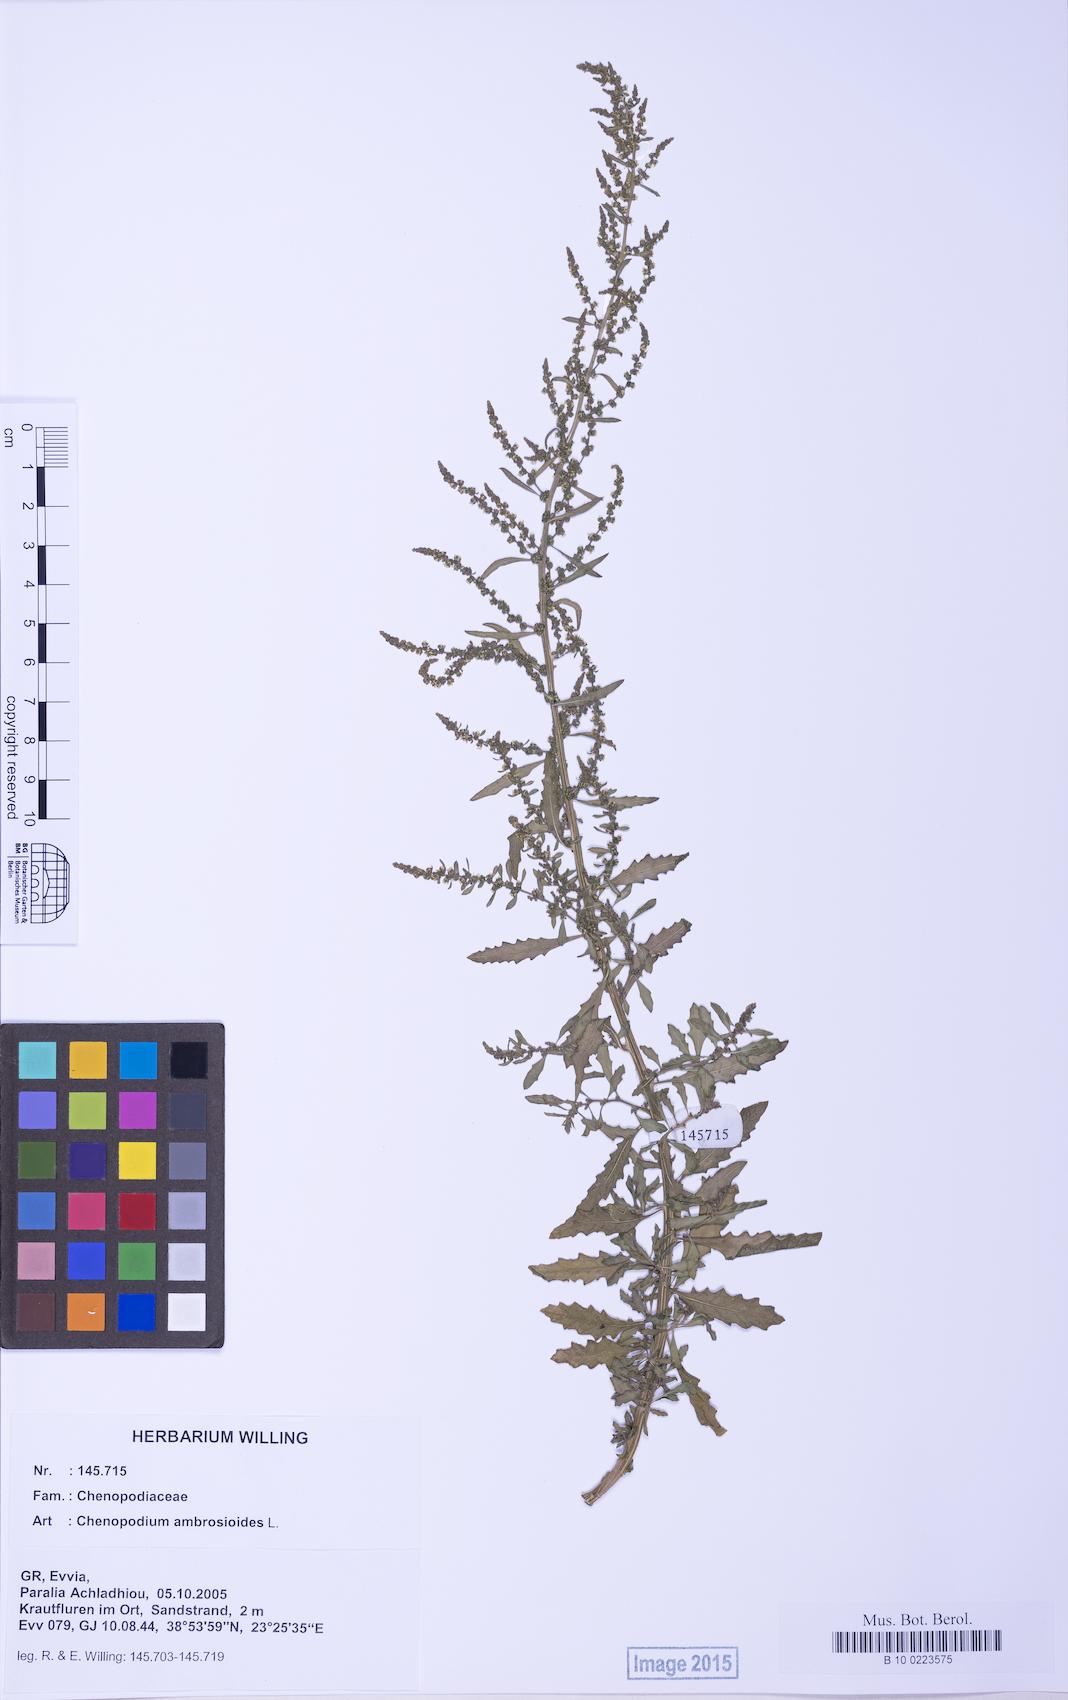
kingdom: Plantae
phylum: Tracheophyta
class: Magnoliopsida
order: Caryophyllales
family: Amaranthaceae
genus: Dysphania
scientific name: Dysphania ambrosioides
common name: Wormseed
